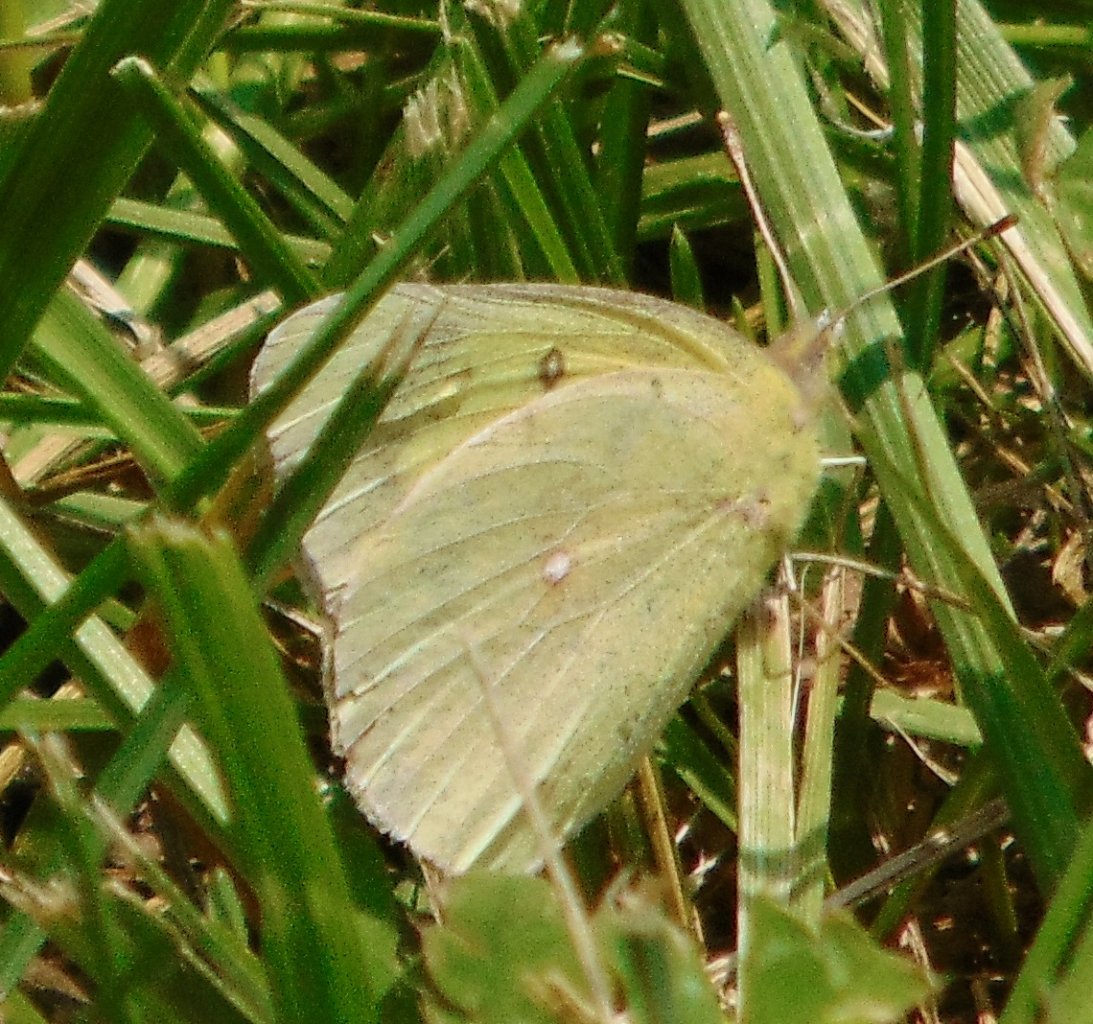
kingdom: Animalia
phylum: Arthropoda
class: Insecta
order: Lepidoptera
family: Pieridae
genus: Colias
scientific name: Colias philodice
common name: Clouded Sulphur
